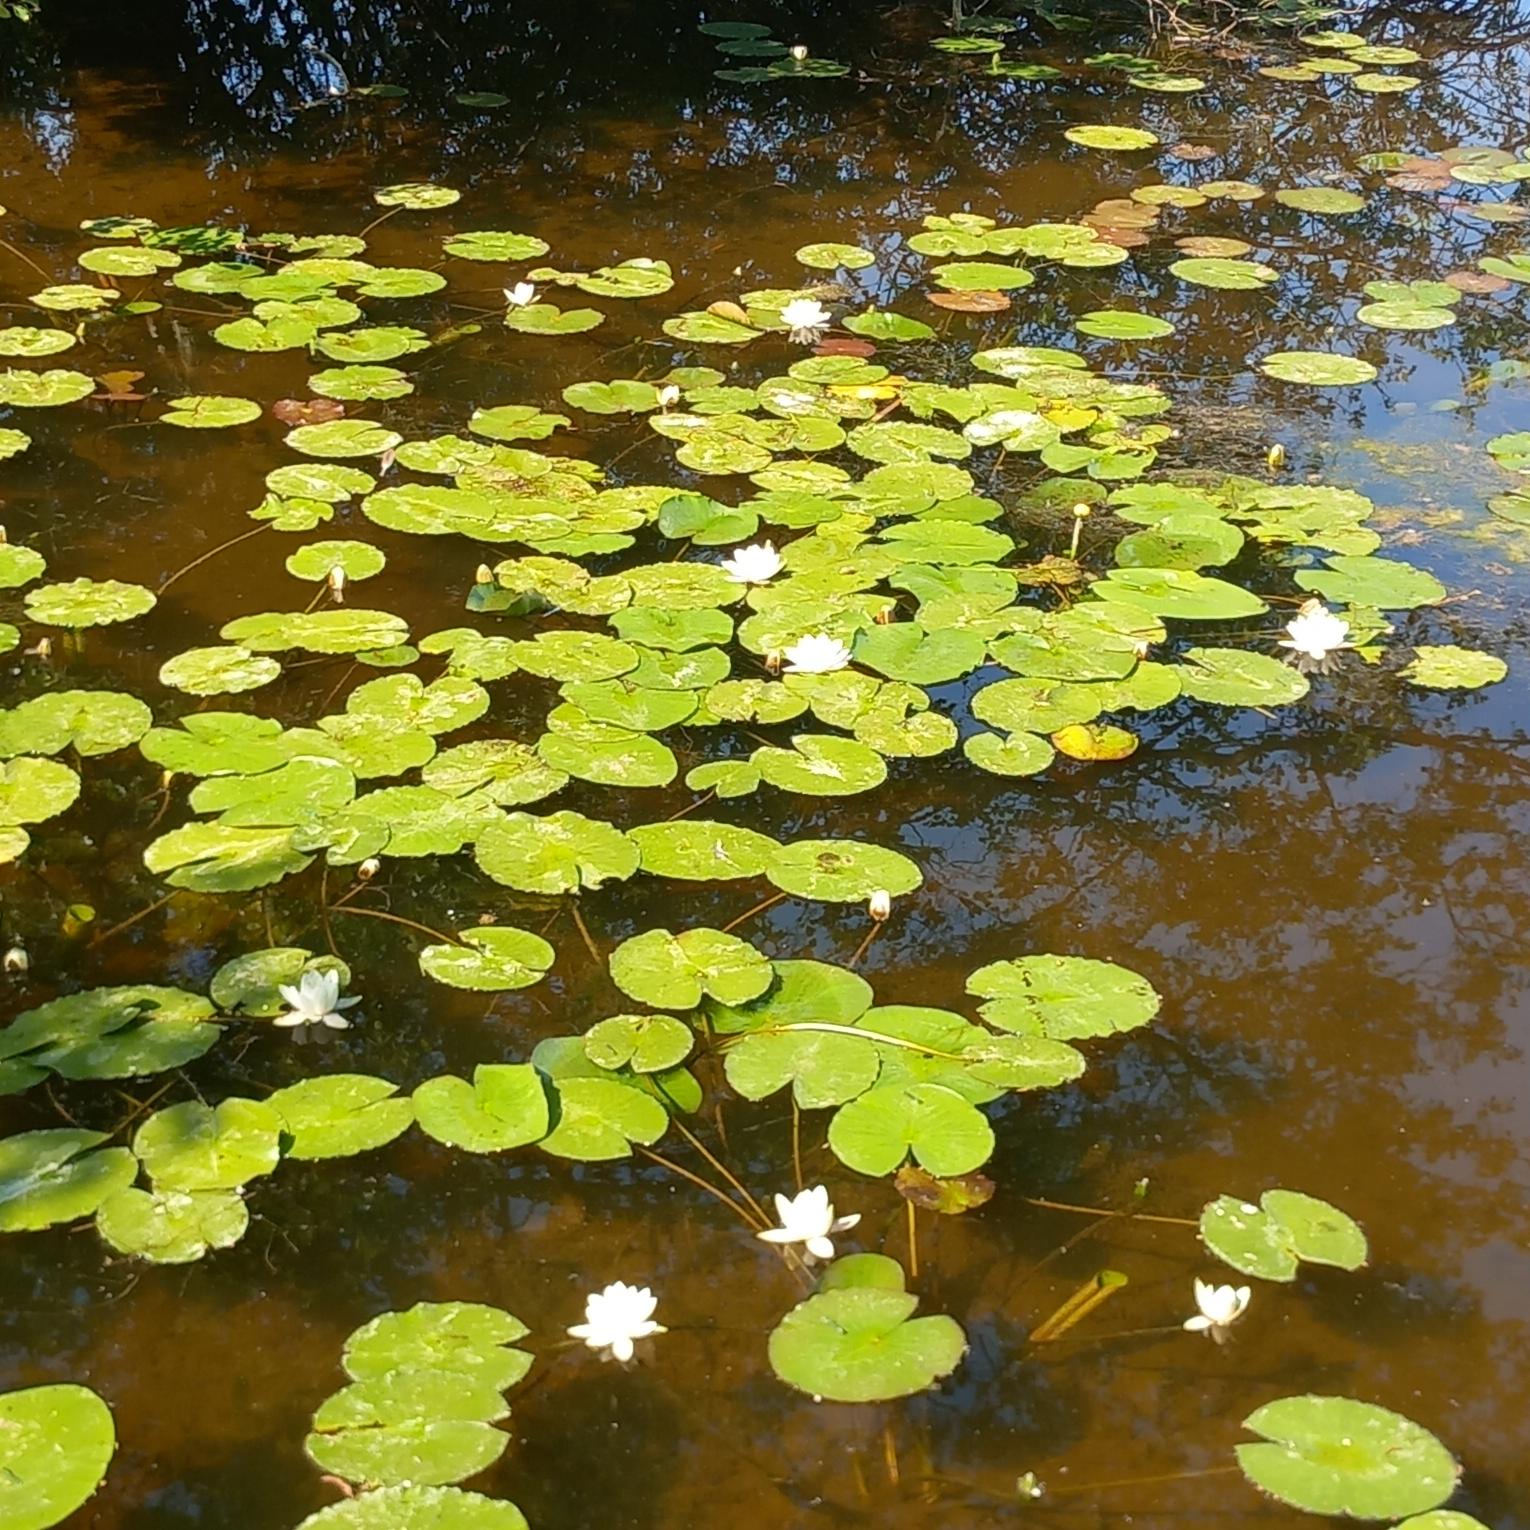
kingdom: Plantae
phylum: Tracheophyta
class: Magnoliopsida
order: Nymphaeales
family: Nymphaeaceae
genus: Nymphaea
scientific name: Nymphaea alba
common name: Hvid åkande
